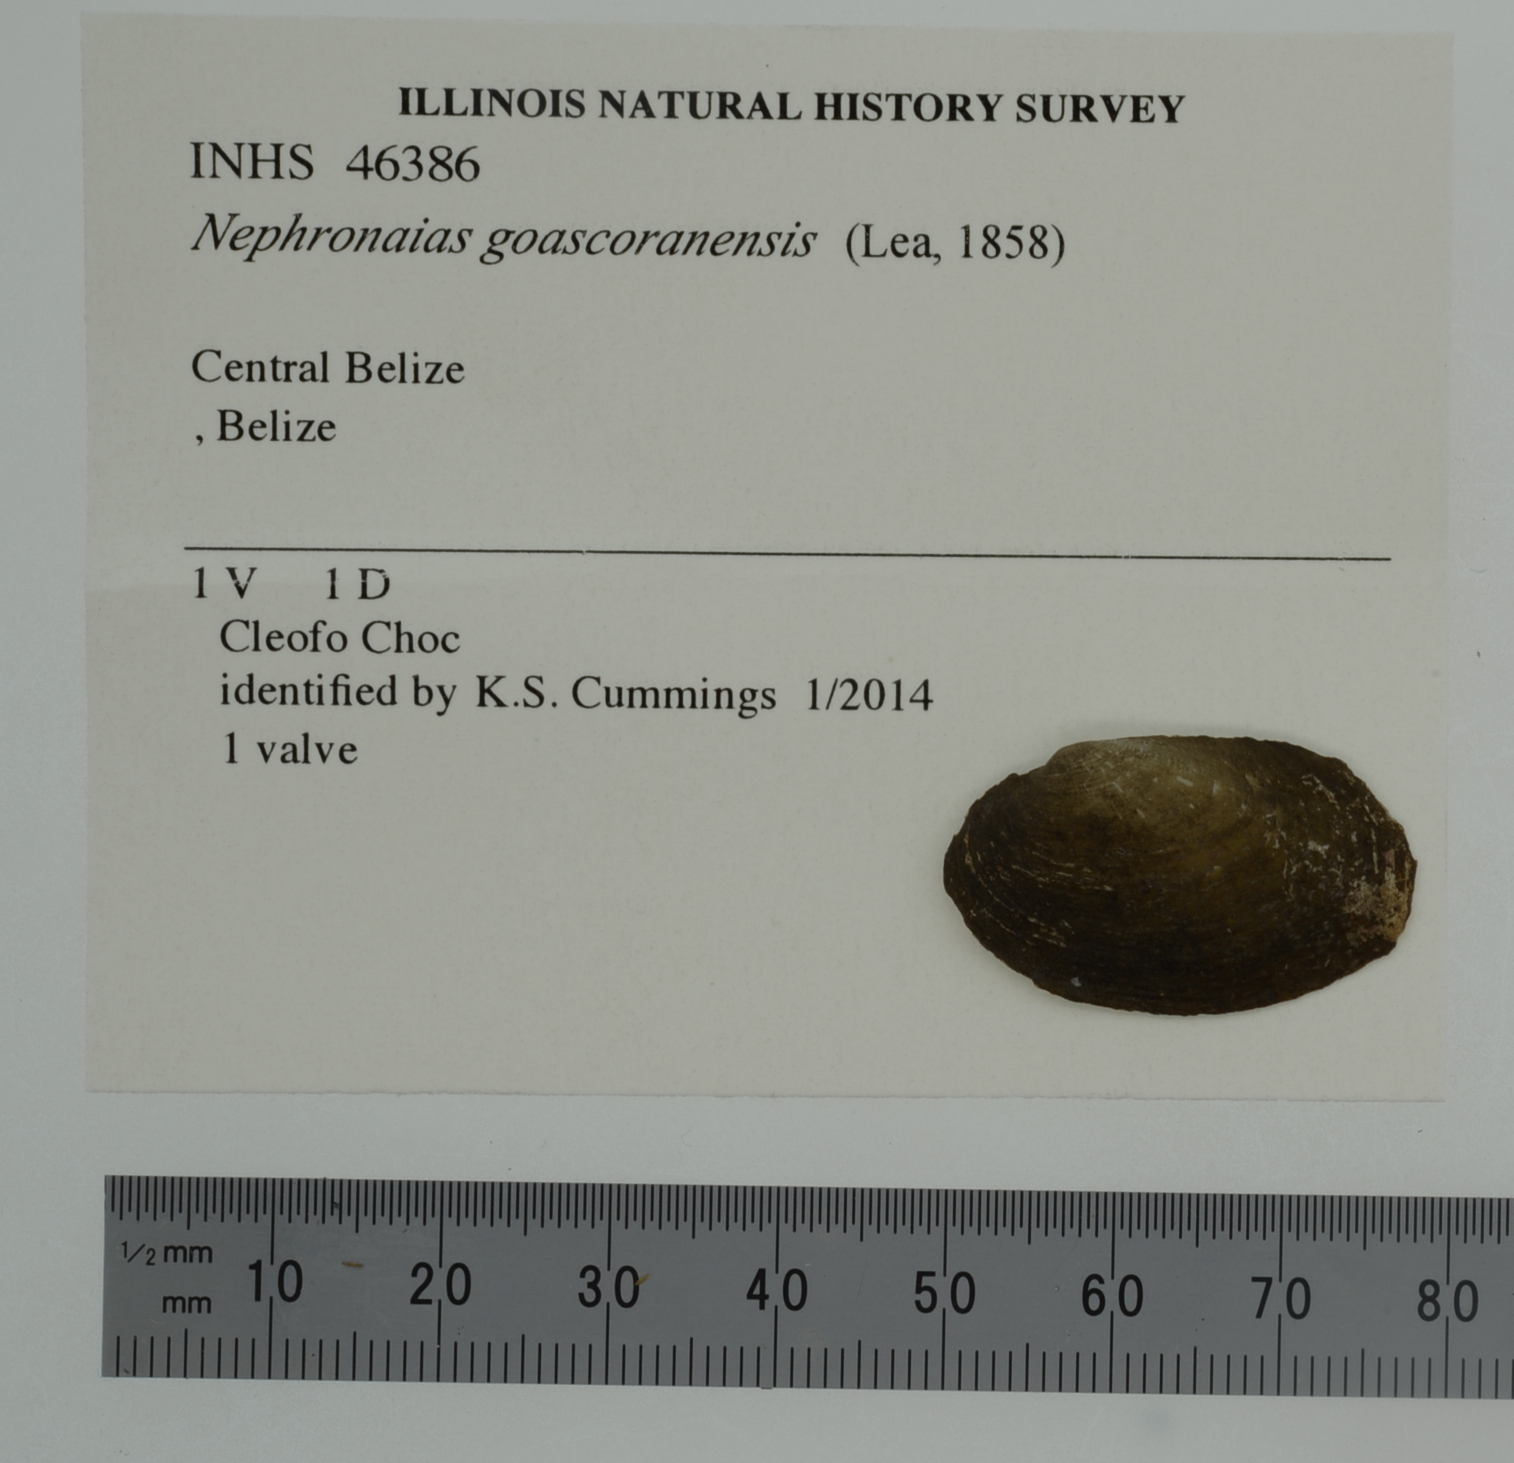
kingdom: Animalia
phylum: Mollusca
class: Bivalvia
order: Unionida
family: Unionidae
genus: Nephronaias
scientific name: Nephronaias dysonii
